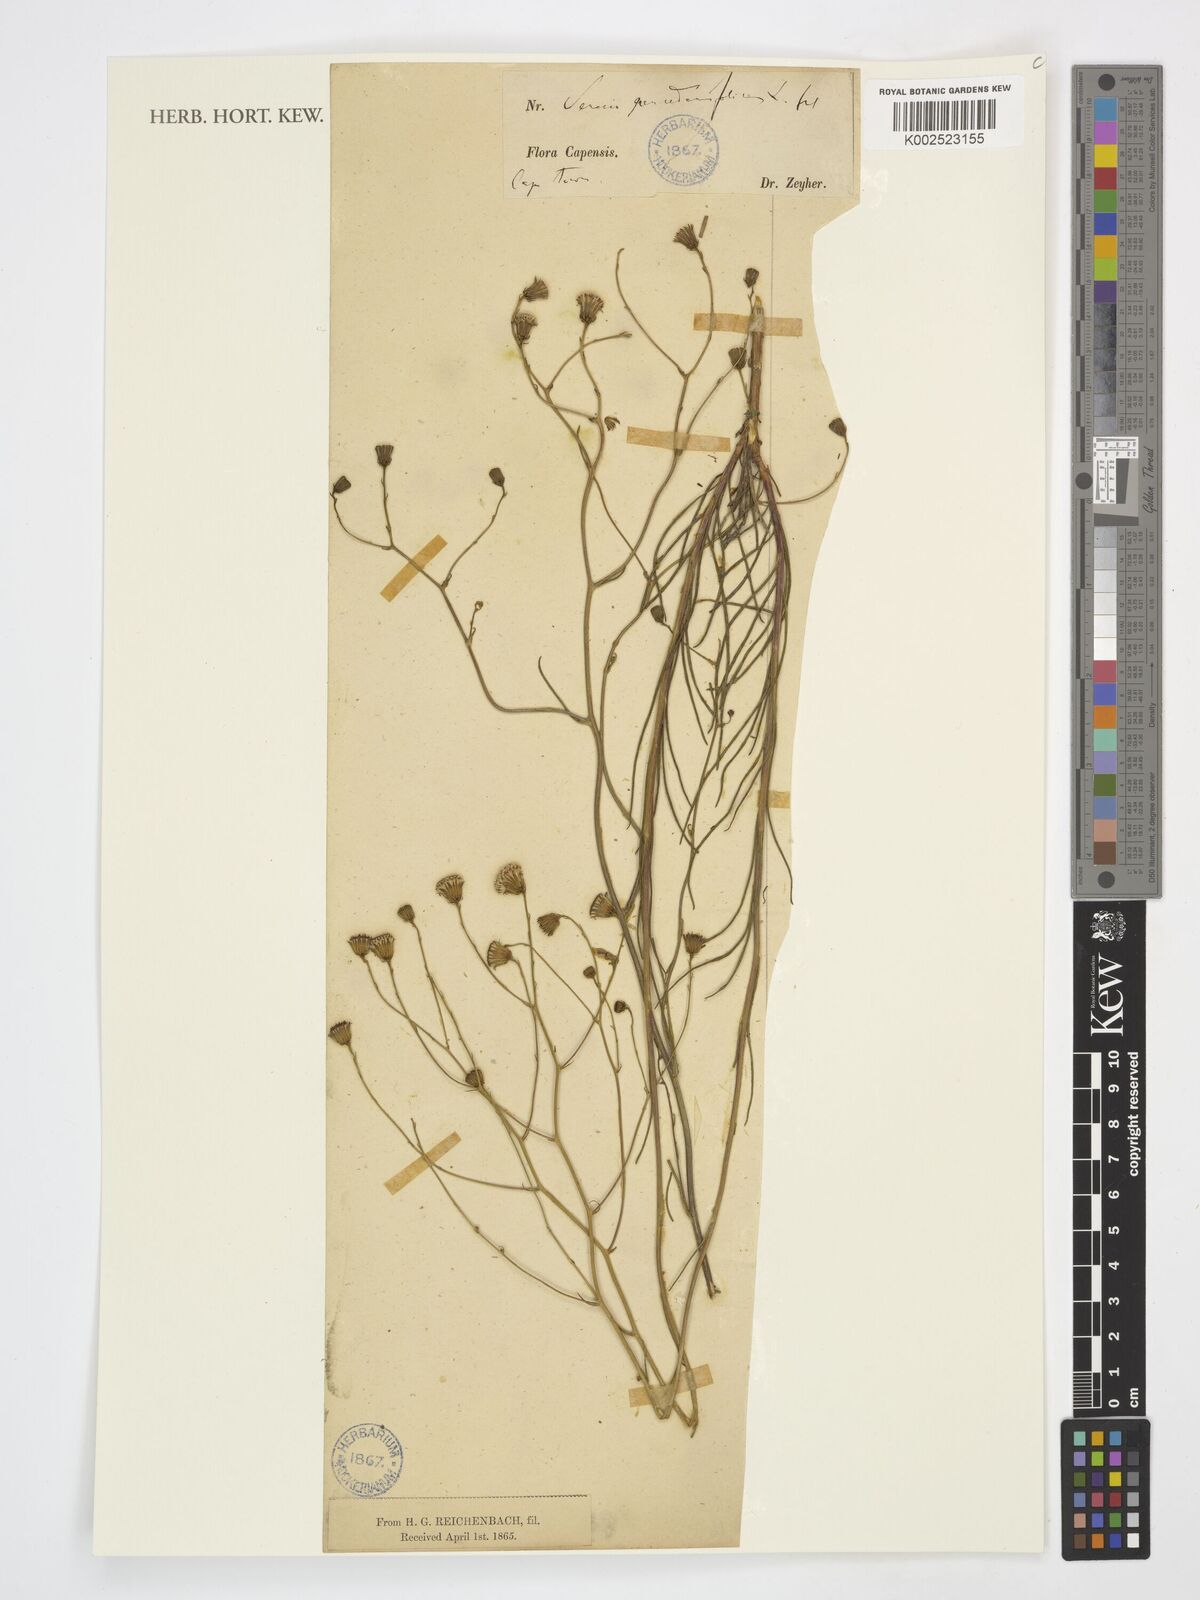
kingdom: Plantae
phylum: Tracheophyta
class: Magnoliopsida
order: Asterales
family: Asteraceae
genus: Senecio
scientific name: Senecio paniculatus
